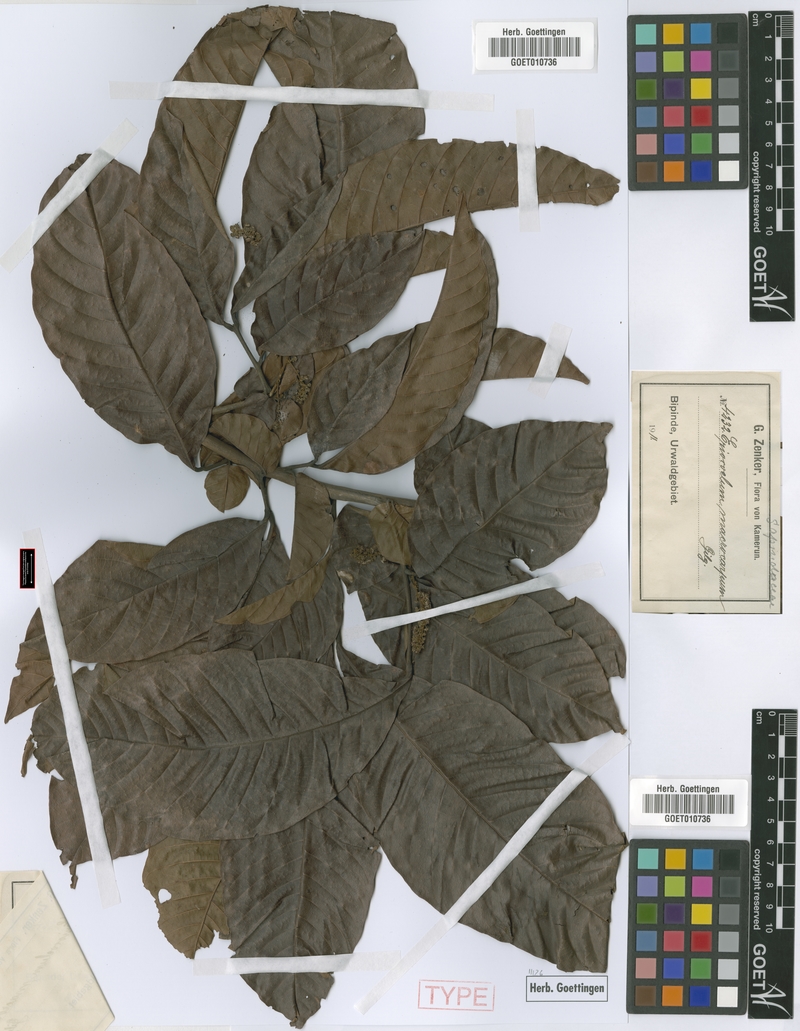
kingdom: Plantae
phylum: Tracheophyta
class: Magnoliopsida
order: Sapindales
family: Sapindaceae
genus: Eriocoelum
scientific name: Eriocoelum macrocarpum
